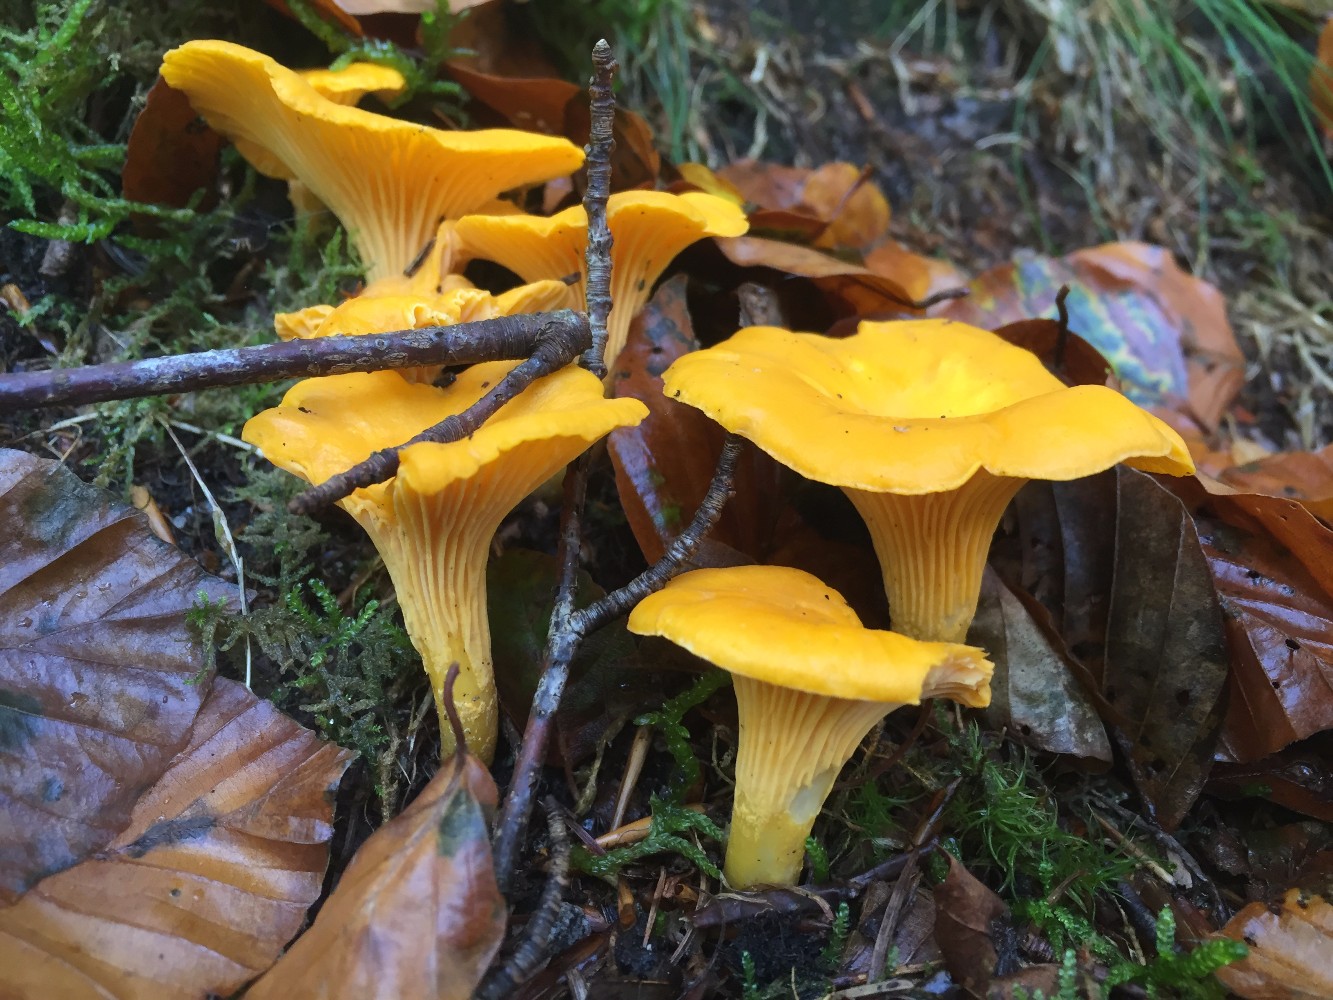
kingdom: Fungi
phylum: Basidiomycota
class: Agaricomycetes
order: Cantharellales
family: Hydnaceae
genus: Cantharellus
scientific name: Cantharellus cibarius
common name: almindelig kantarel
